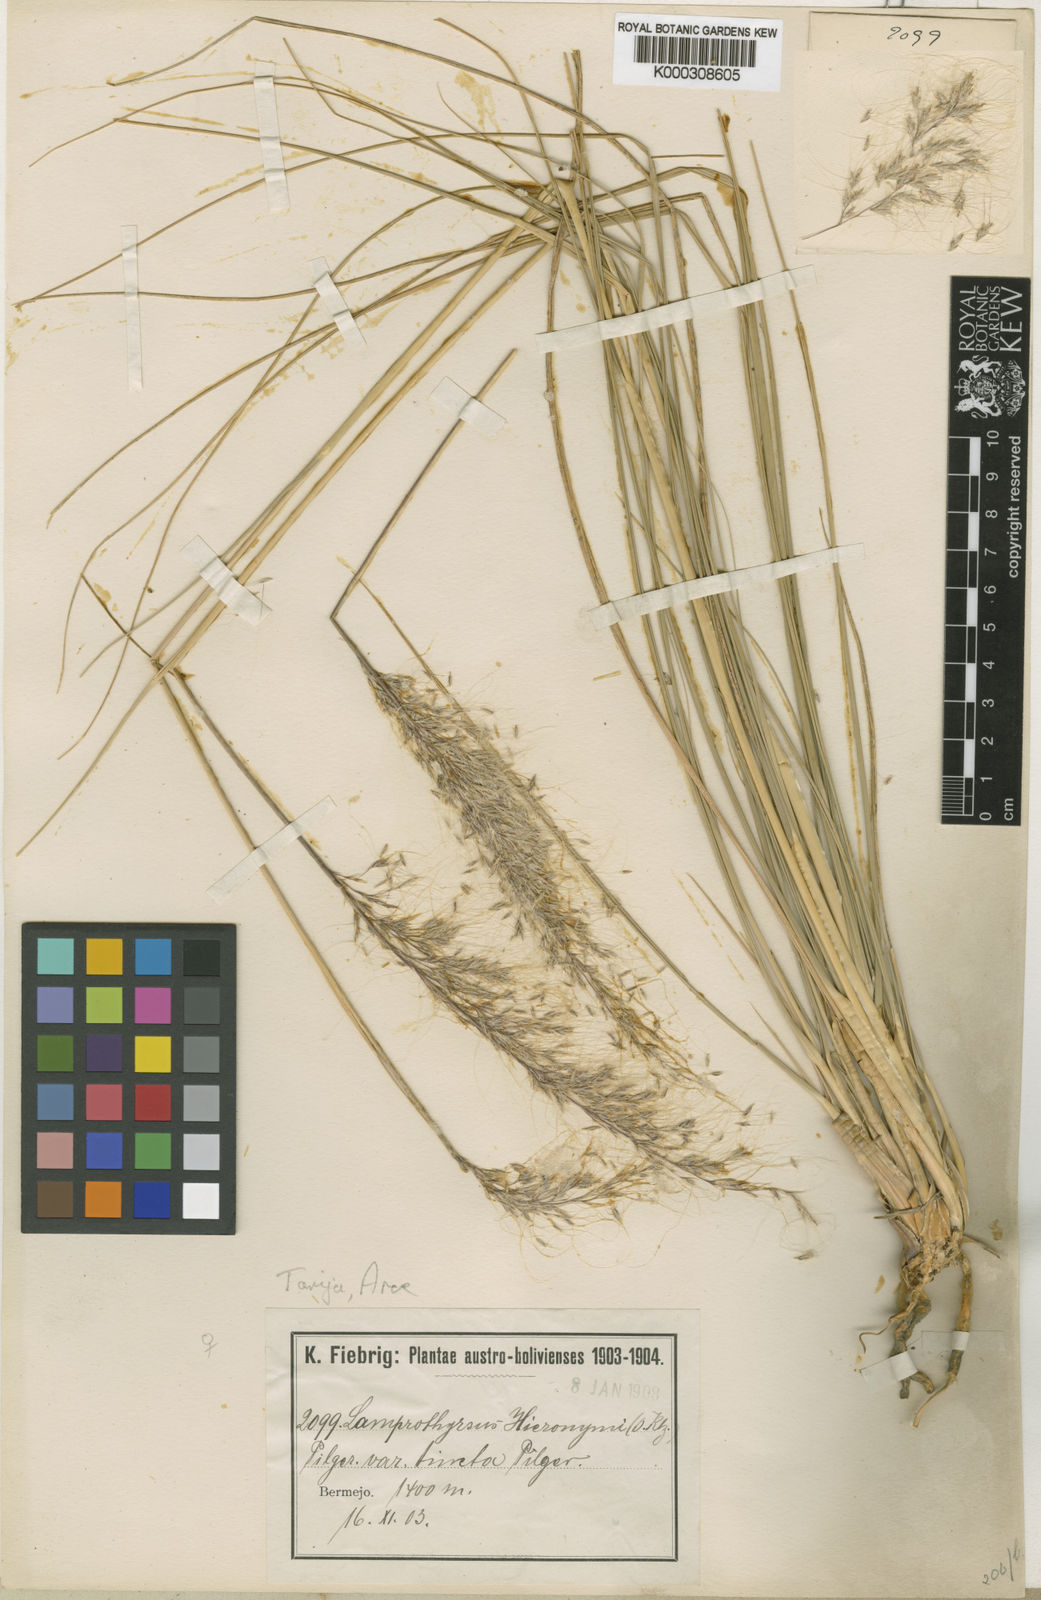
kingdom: Plantae
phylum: Tracheophyta
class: Liliopsida
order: Poales
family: Poaceae
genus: Cortaderia
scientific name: Cortaderia hieronymi
